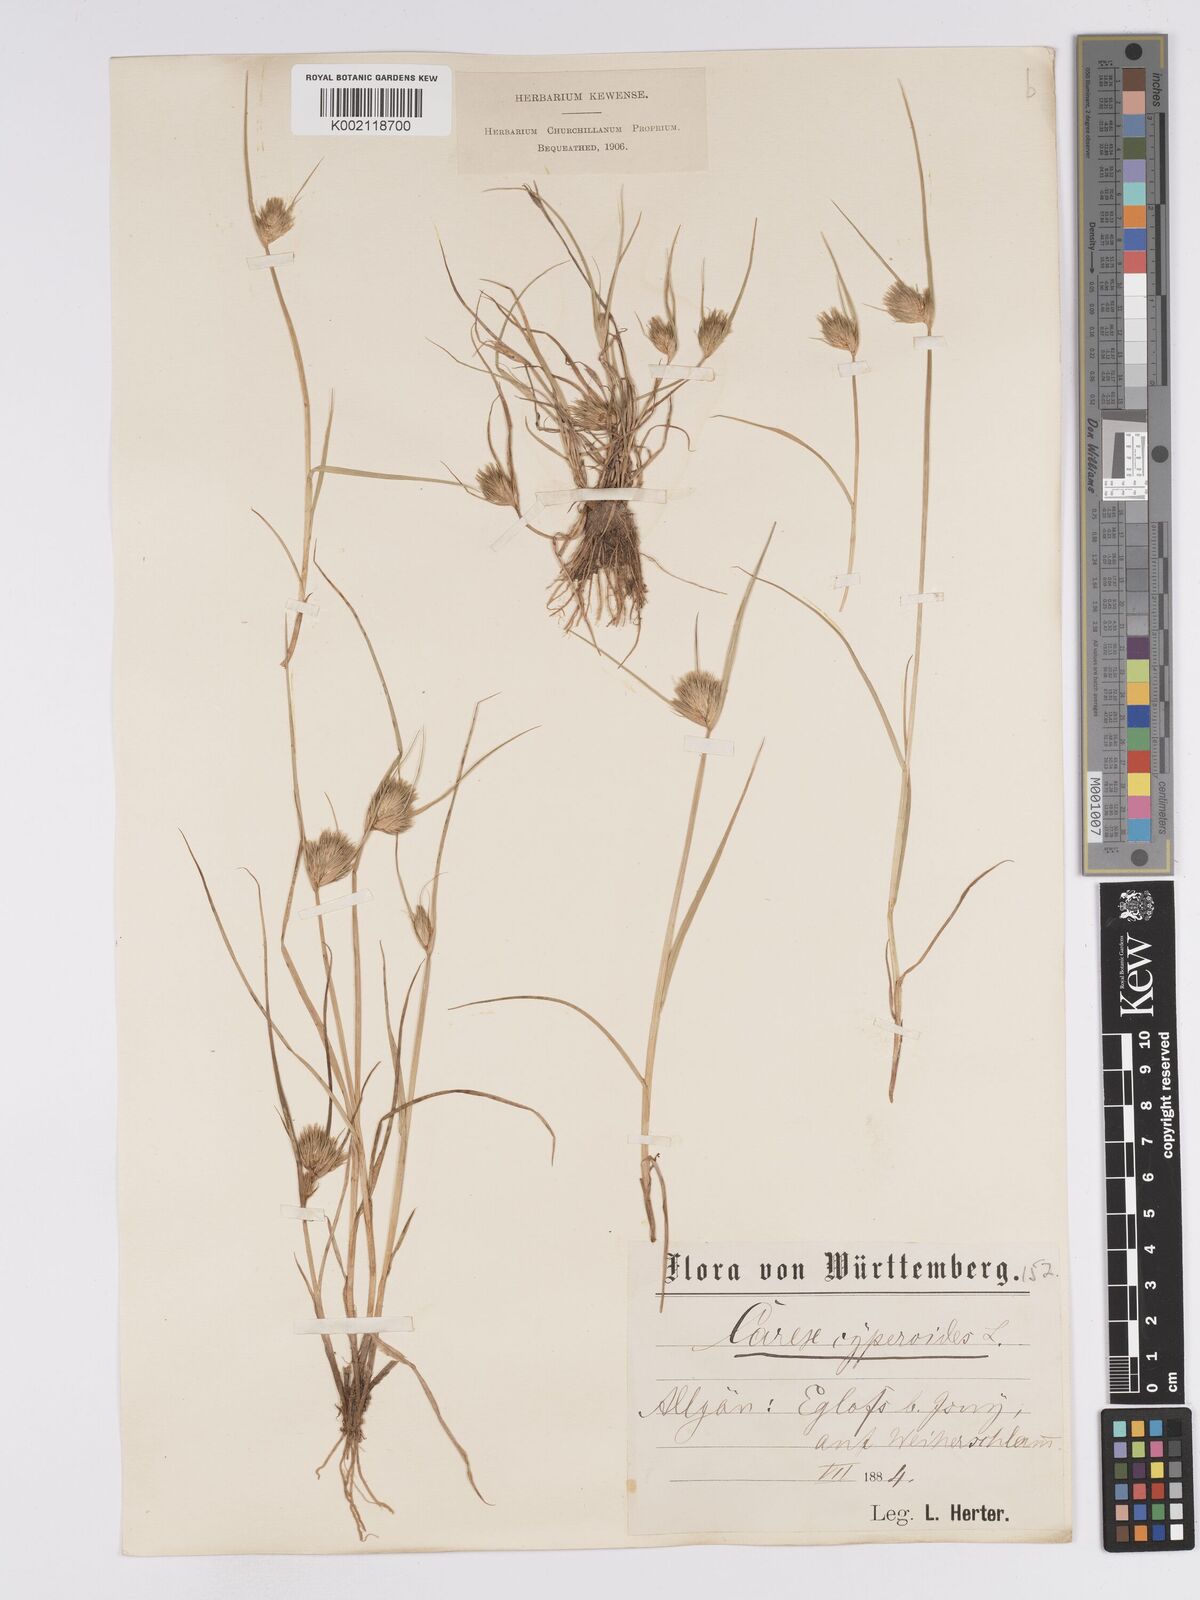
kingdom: Plantae
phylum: Tracheophyta
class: Liliopsida
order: Poales
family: Cyperaceae
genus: Carex
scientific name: Carex bohemica
